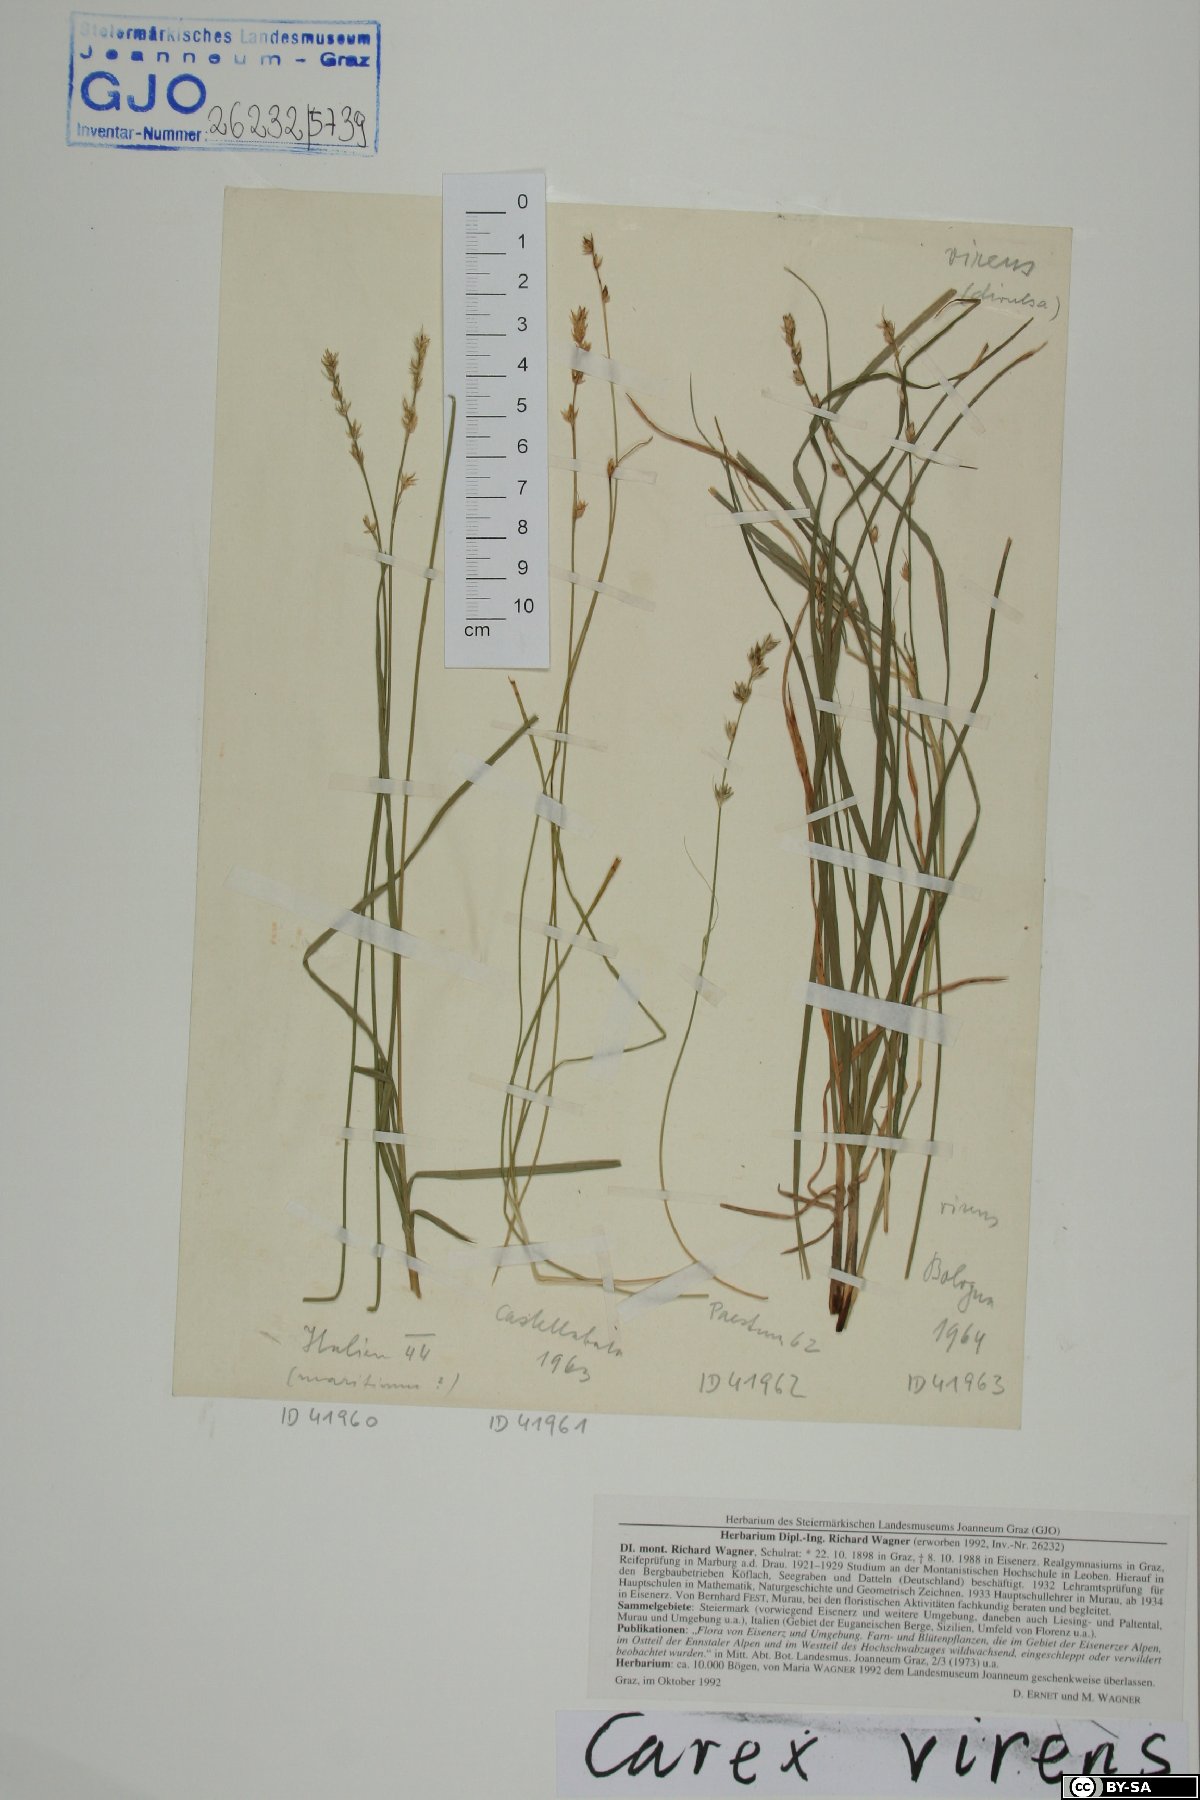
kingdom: Plantae
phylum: Tracheophyta
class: Liliopsida
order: Poales
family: Cyperaceae
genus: Carex
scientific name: Carex divulsa
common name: Grassland sedge
